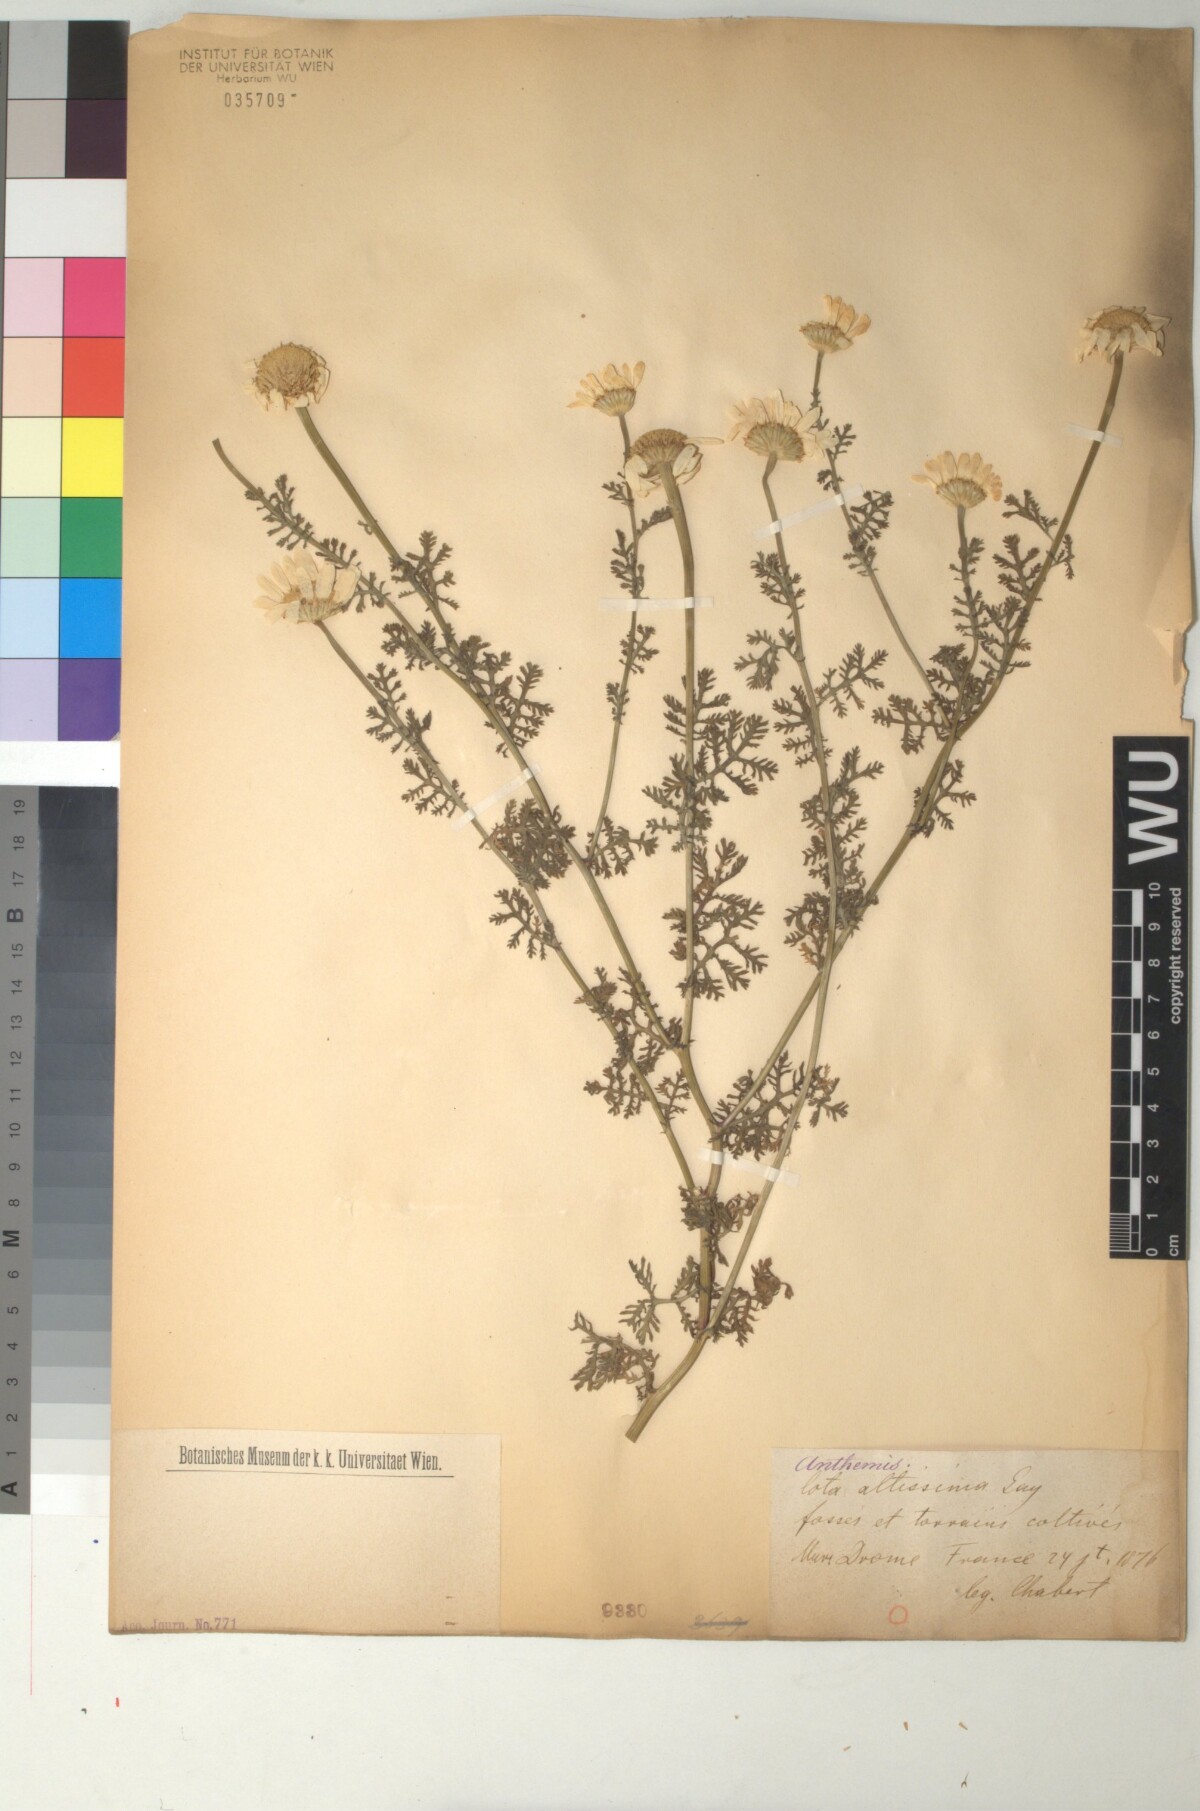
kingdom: Plantae
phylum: Tracheophyta
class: Magnoliopsida
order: Asterales
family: Asteraceae
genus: Cota
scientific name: Cota altissima
